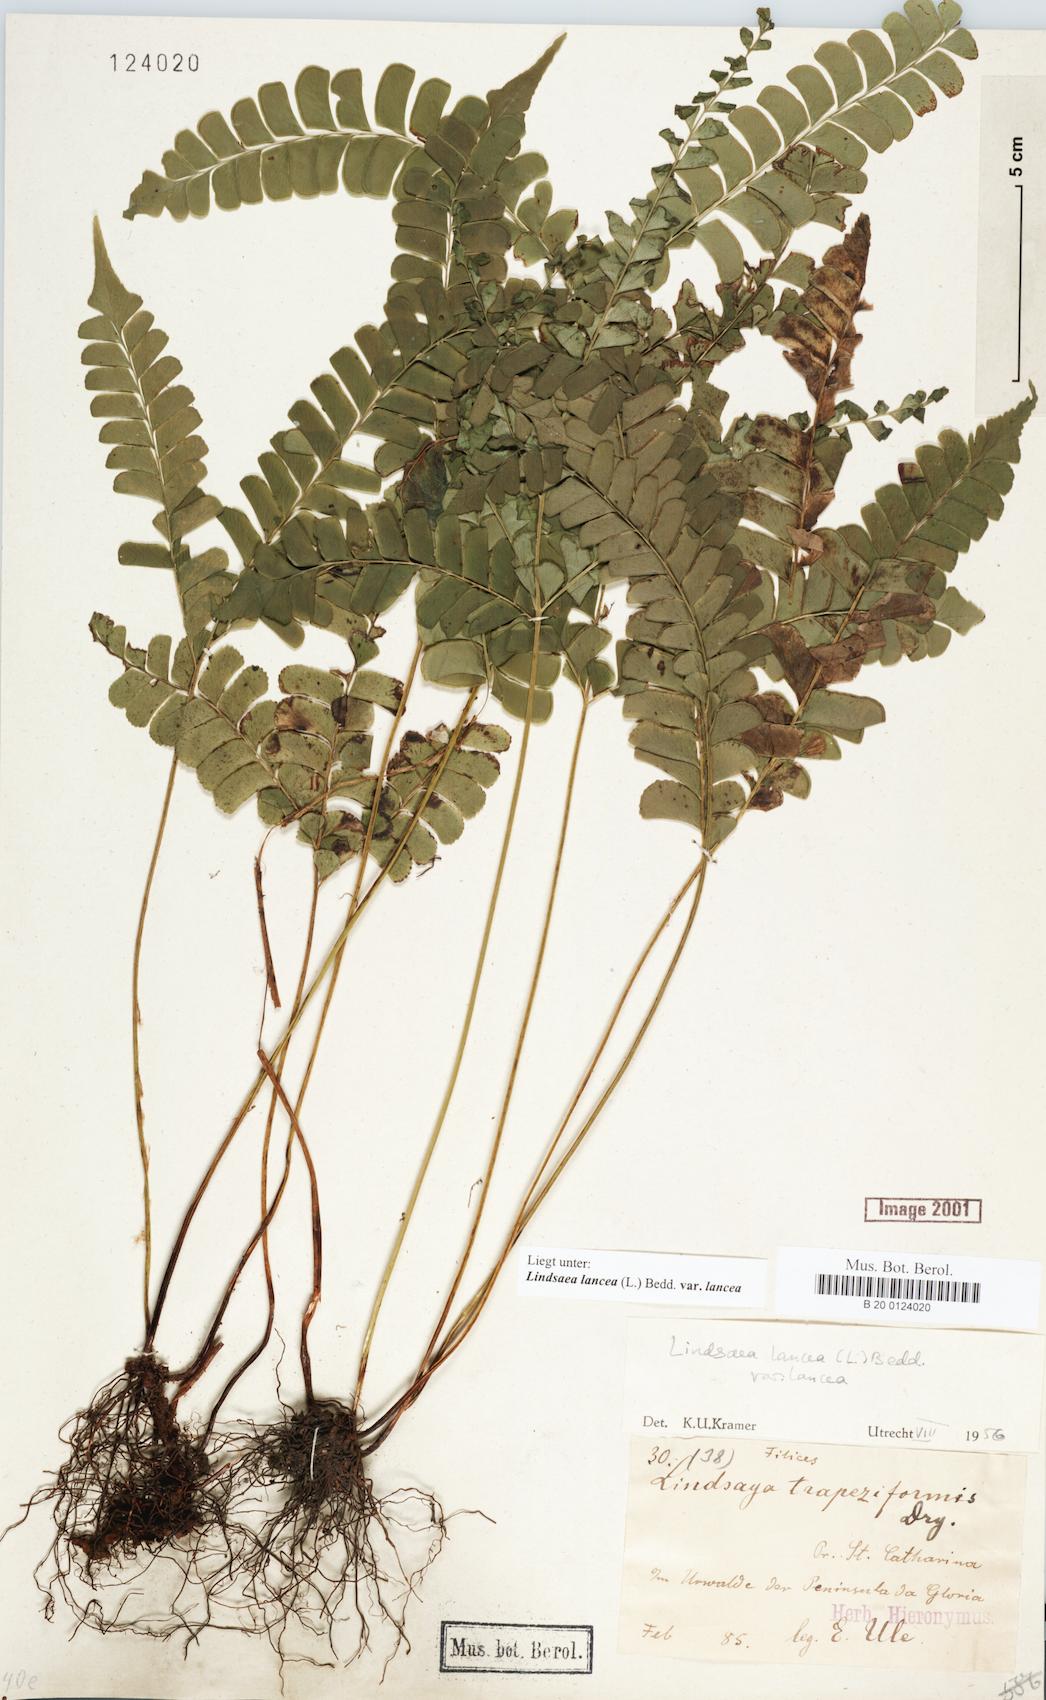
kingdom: Plantae
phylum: Tracheophyta
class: Polypodiopsida
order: Polypodiales
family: Lindsaeaceae
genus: Lindsaea
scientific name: Lindsaea lancea
